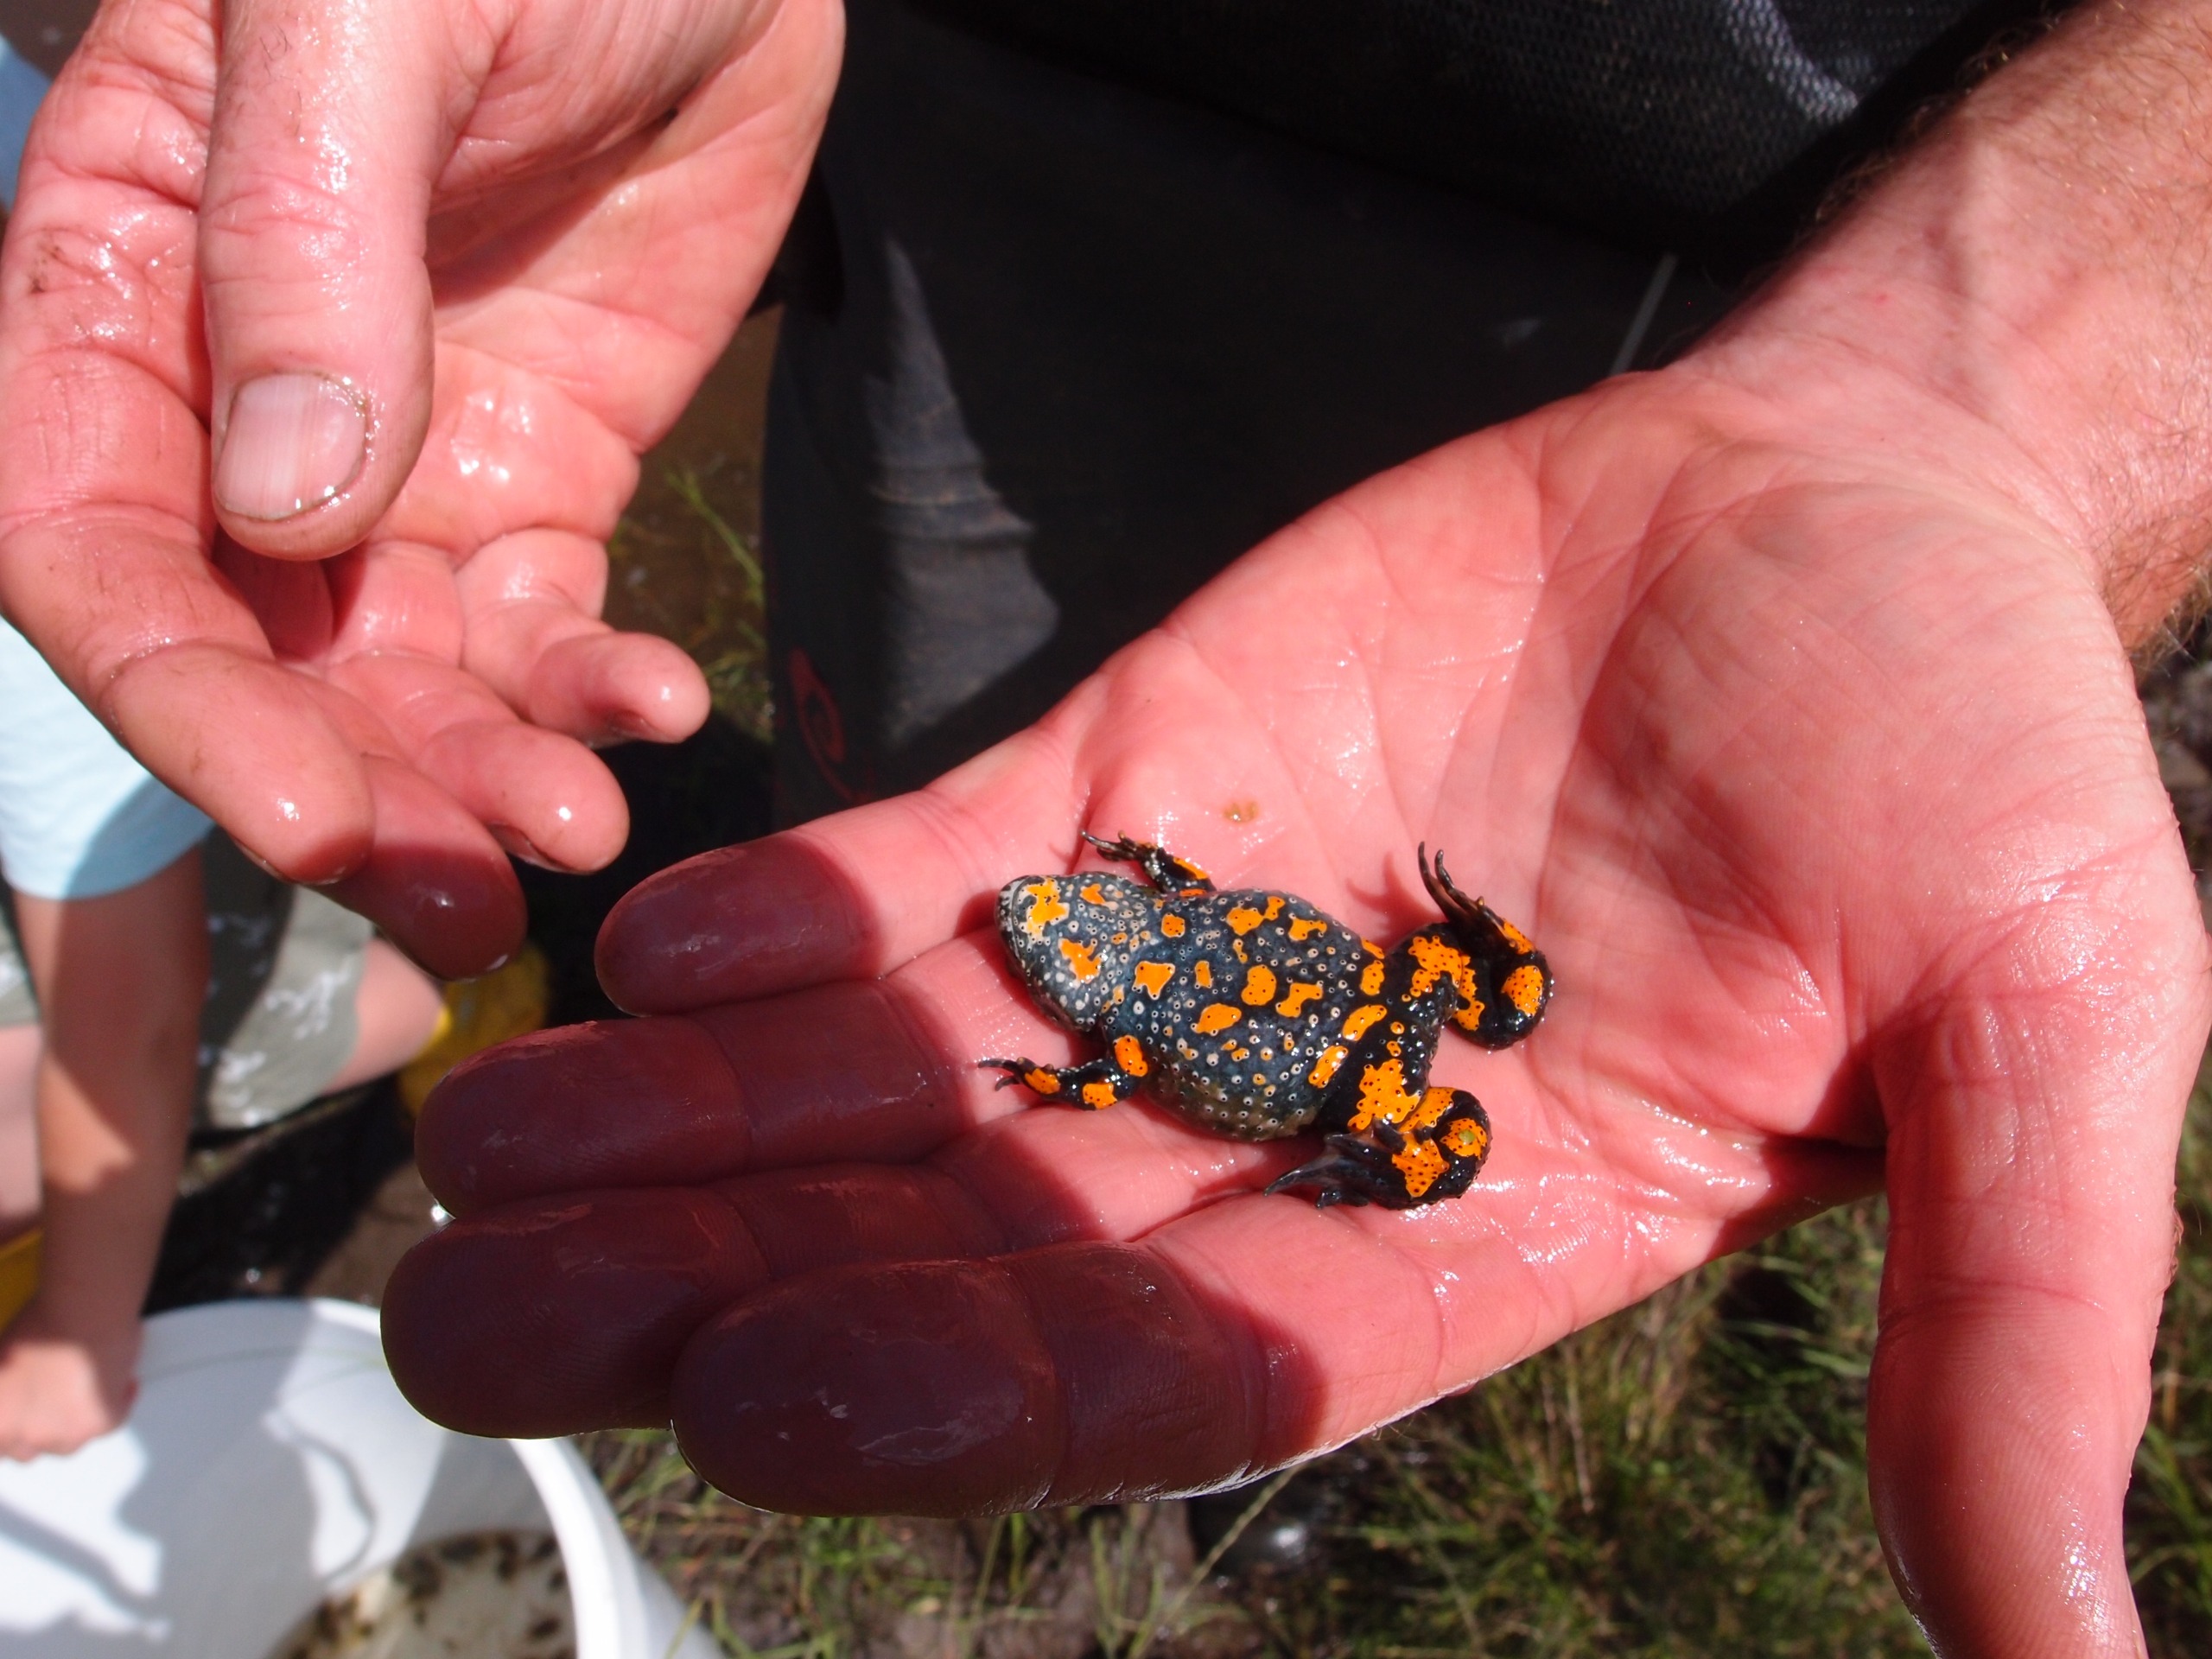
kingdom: Animalia
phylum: Chordata
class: Amphibia
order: Anura
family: Bombinatoridae
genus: Bombina
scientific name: Bombina bombina
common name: Klokkefrø
